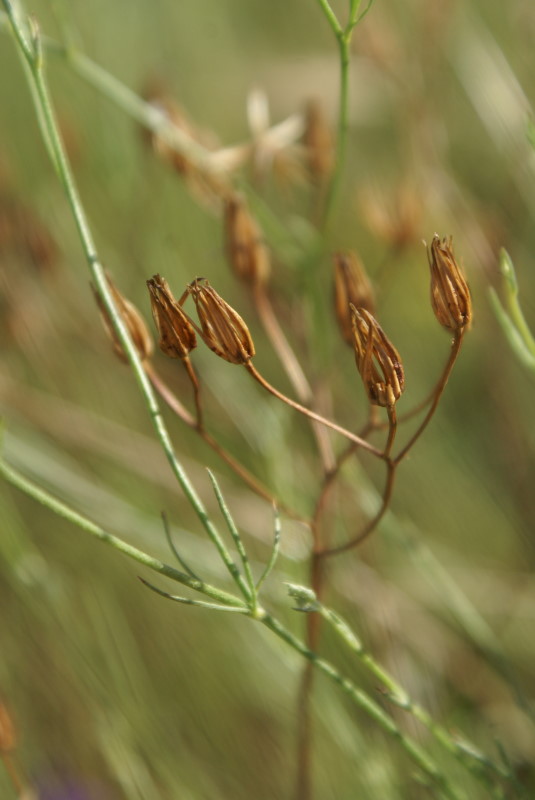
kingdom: Plantae
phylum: Tracheophyta
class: Magnoliopsida
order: Ranunculales
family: Ranunculaceae
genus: Delphinium
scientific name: Delphinium consolida
